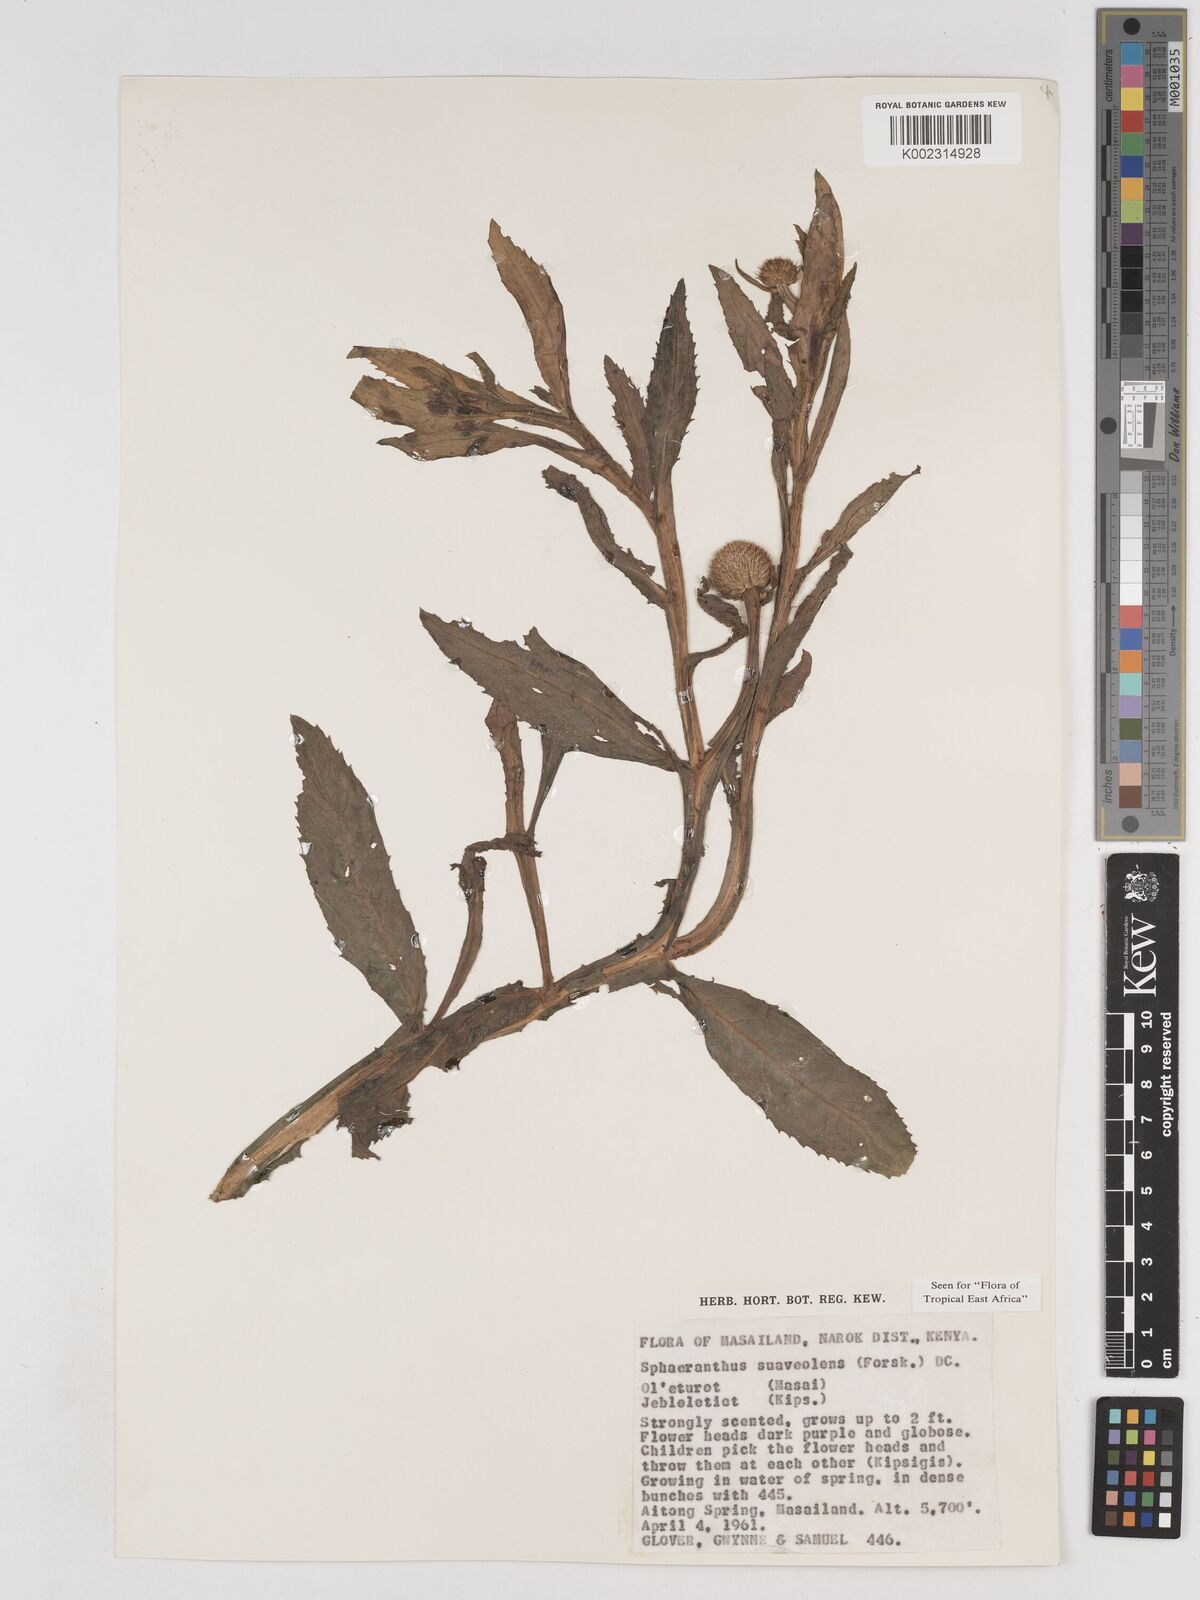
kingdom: Plantae
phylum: Tracheophyta
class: Magnoliopsida
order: Asterales
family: Asteraceae
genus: Sphaeranthus
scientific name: Sphaeranthus suaveolens
